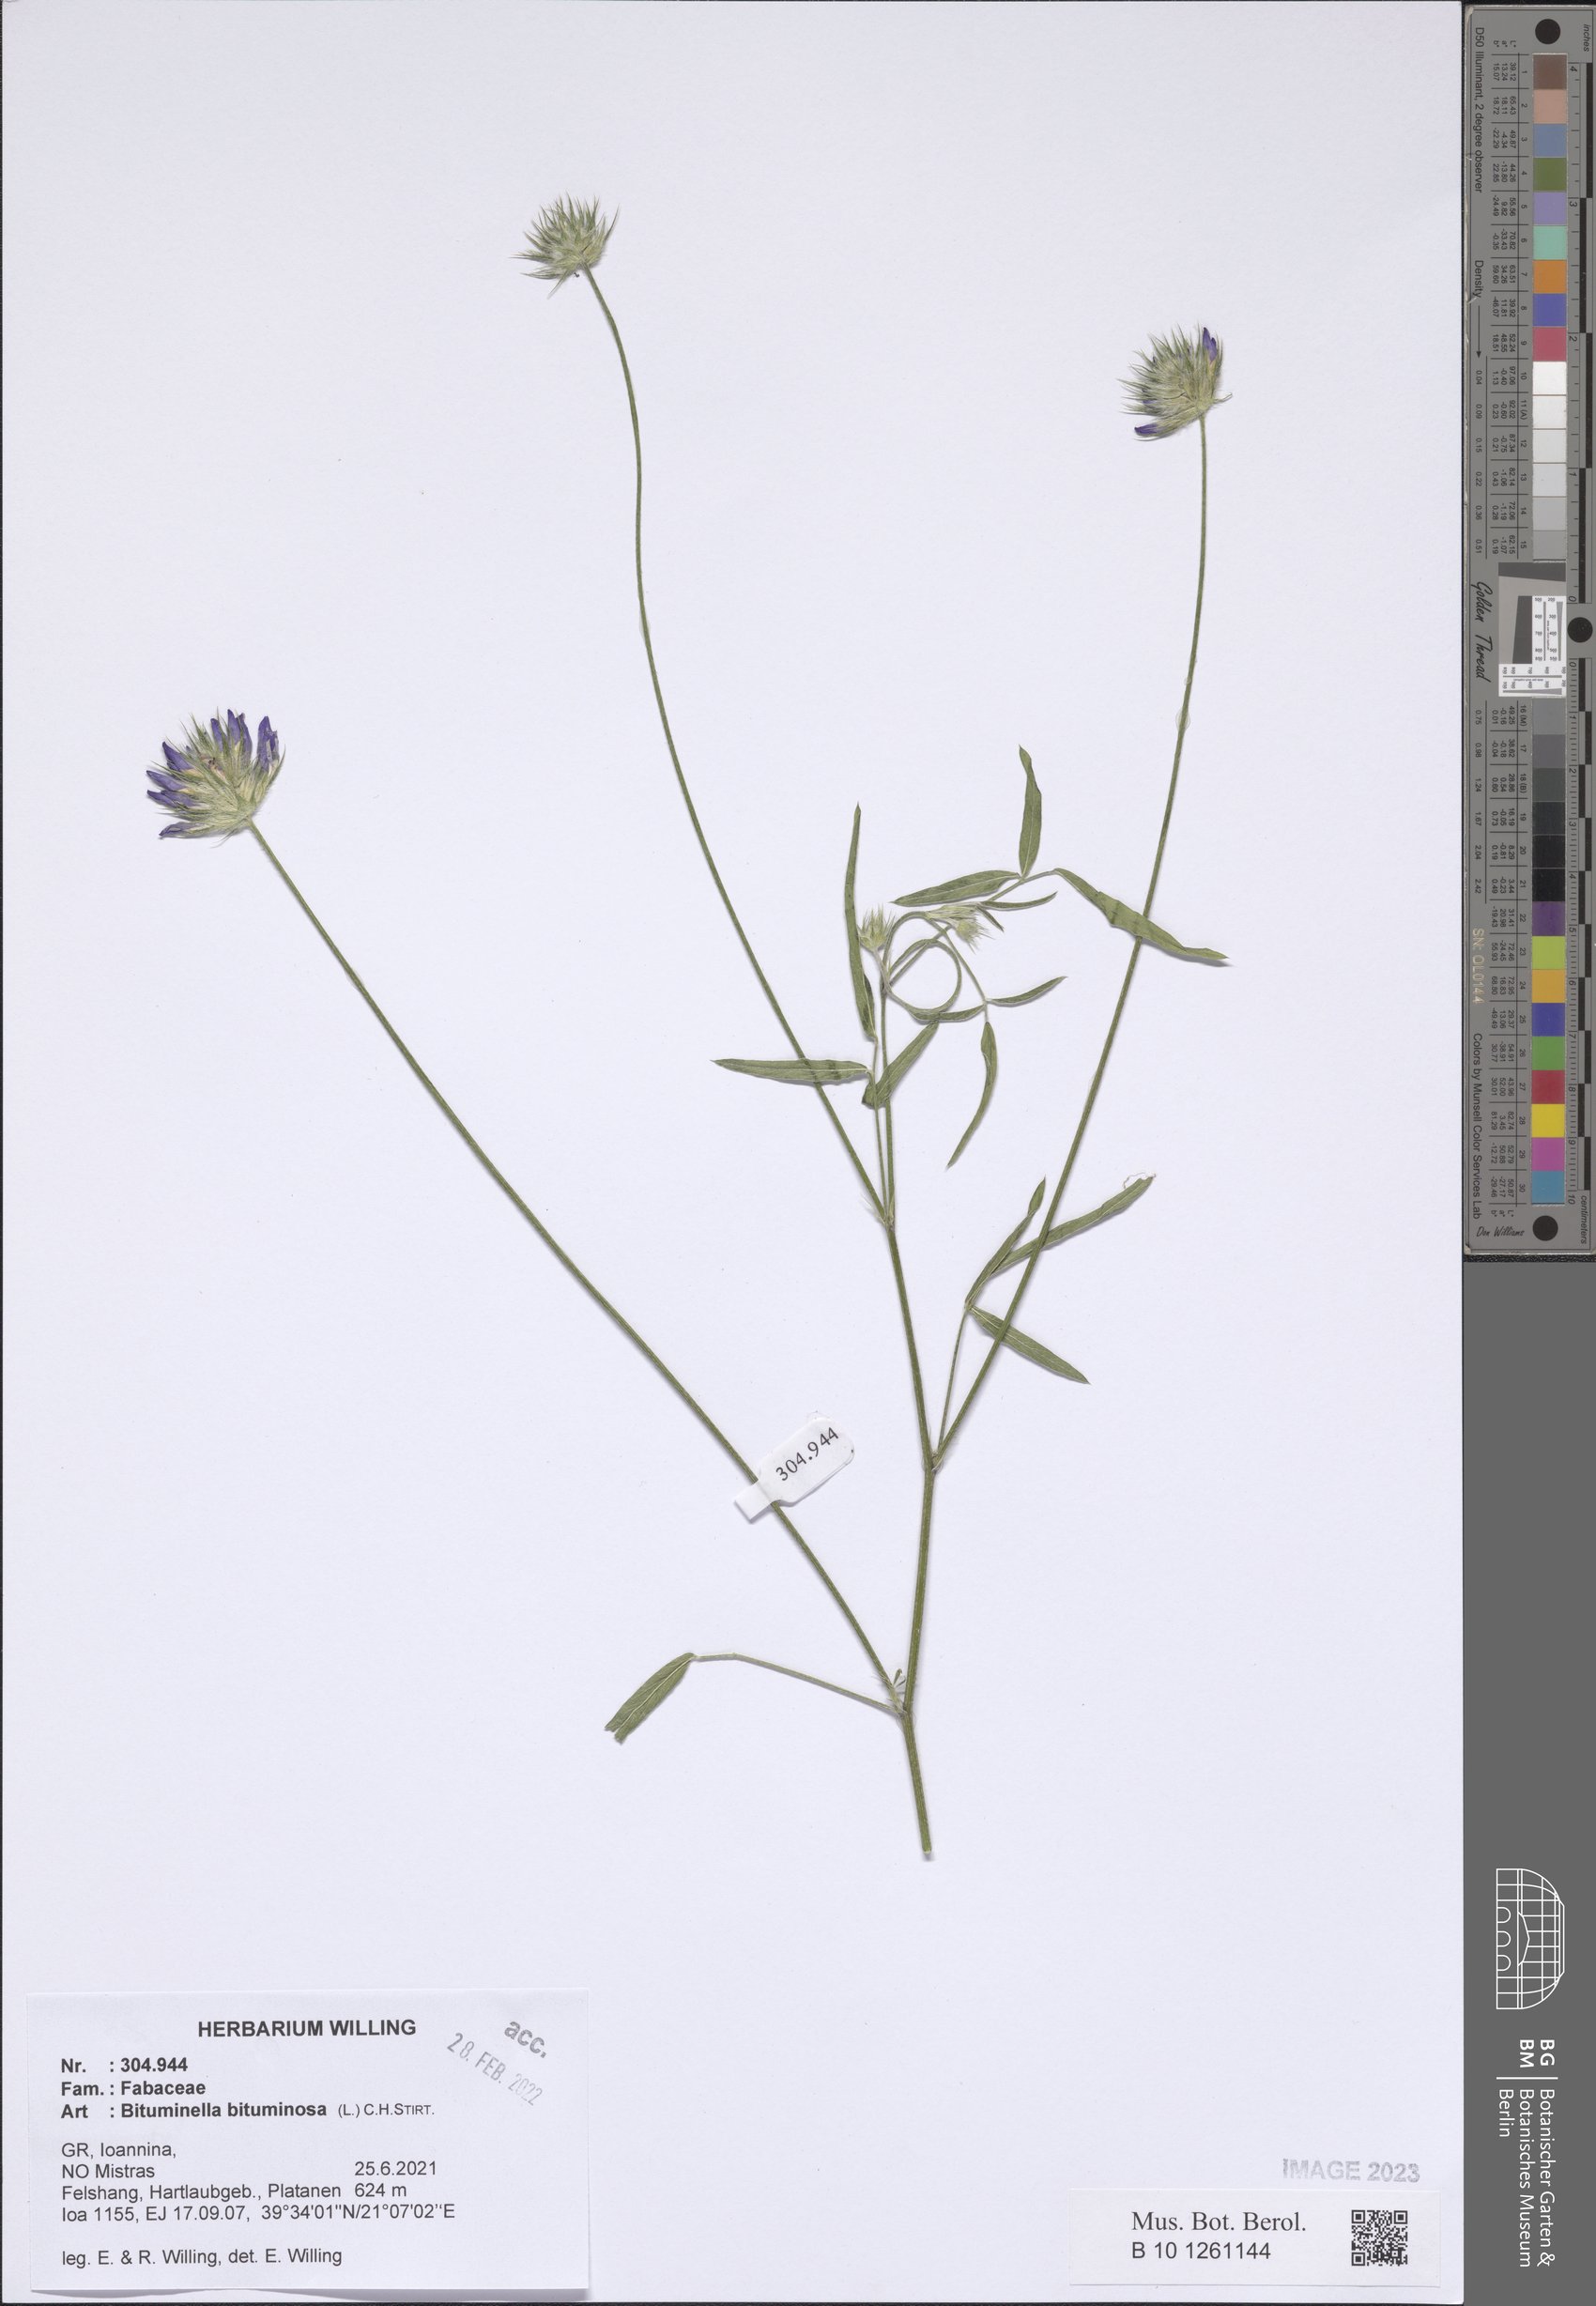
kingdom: Plantae
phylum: Tracheophyta
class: Magnoliopsida
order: Fabales
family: Fabaceae
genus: Bituminaria
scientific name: Bituminaria bituminosa
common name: Arabian pea
